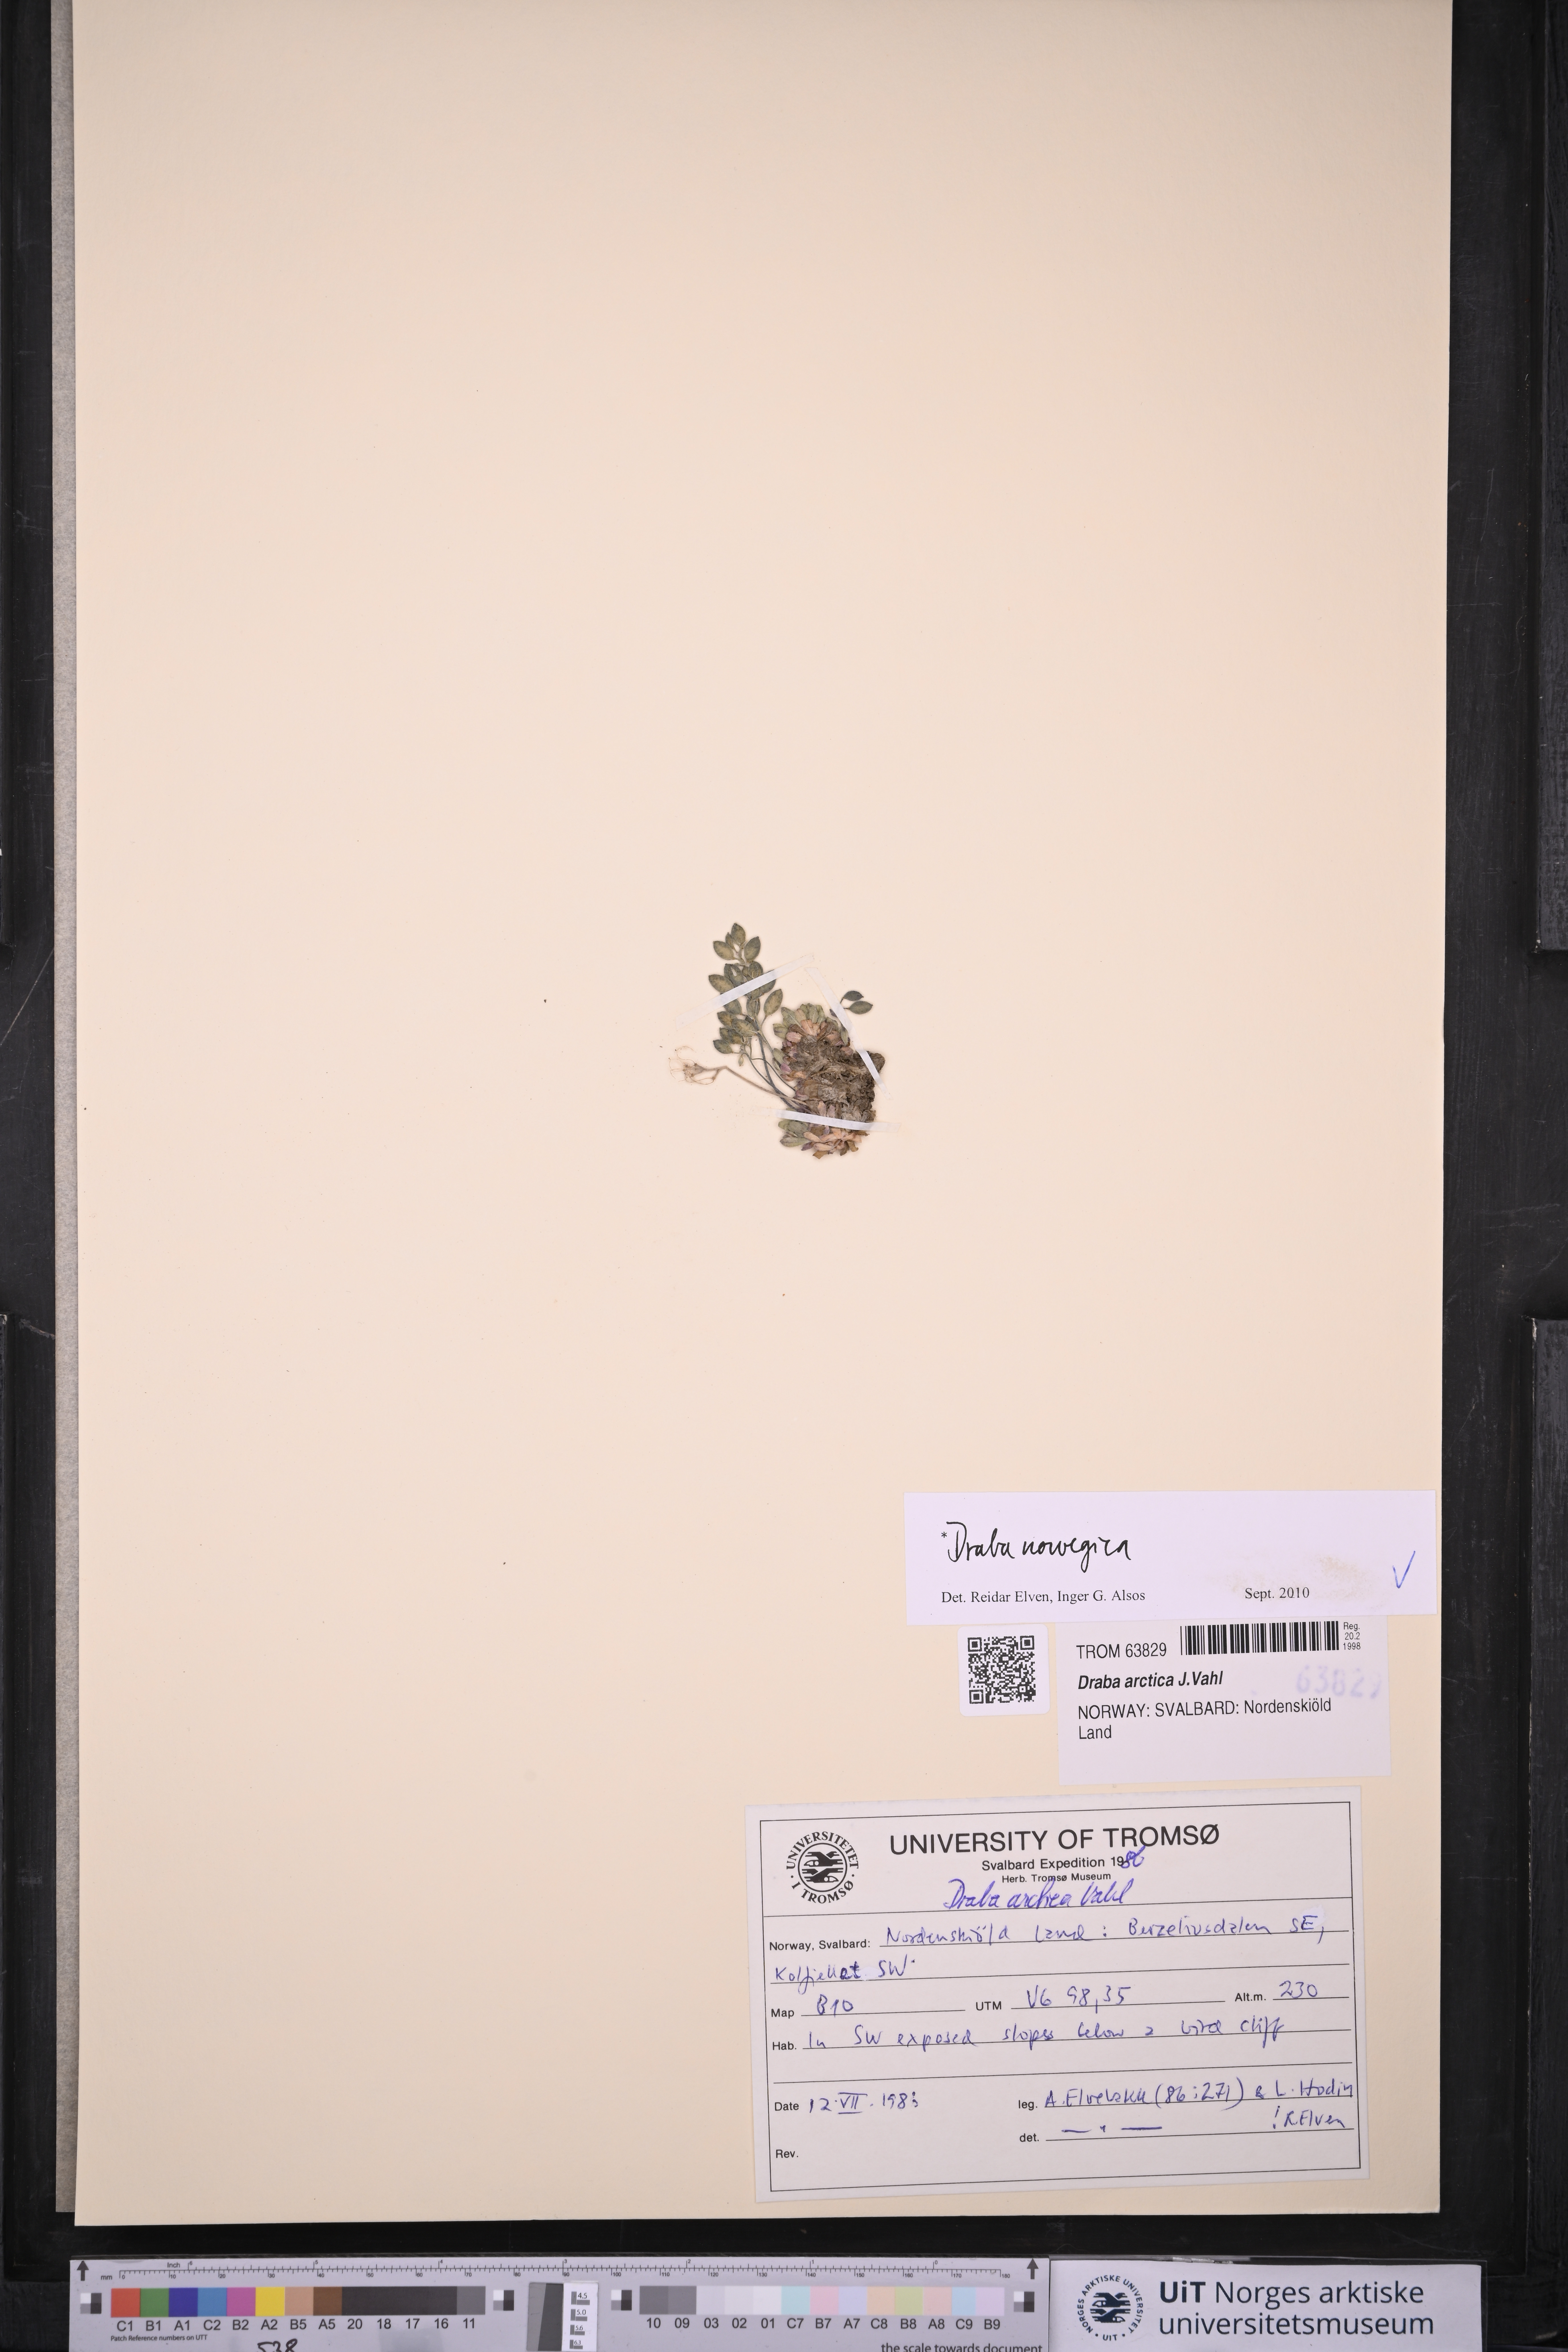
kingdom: Plantae
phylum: Tracheophyta
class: Magnoliopsida
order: Brassicales
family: Brassicaceae
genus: Draba
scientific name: Draba norvegica
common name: Rock whitlowgrass
